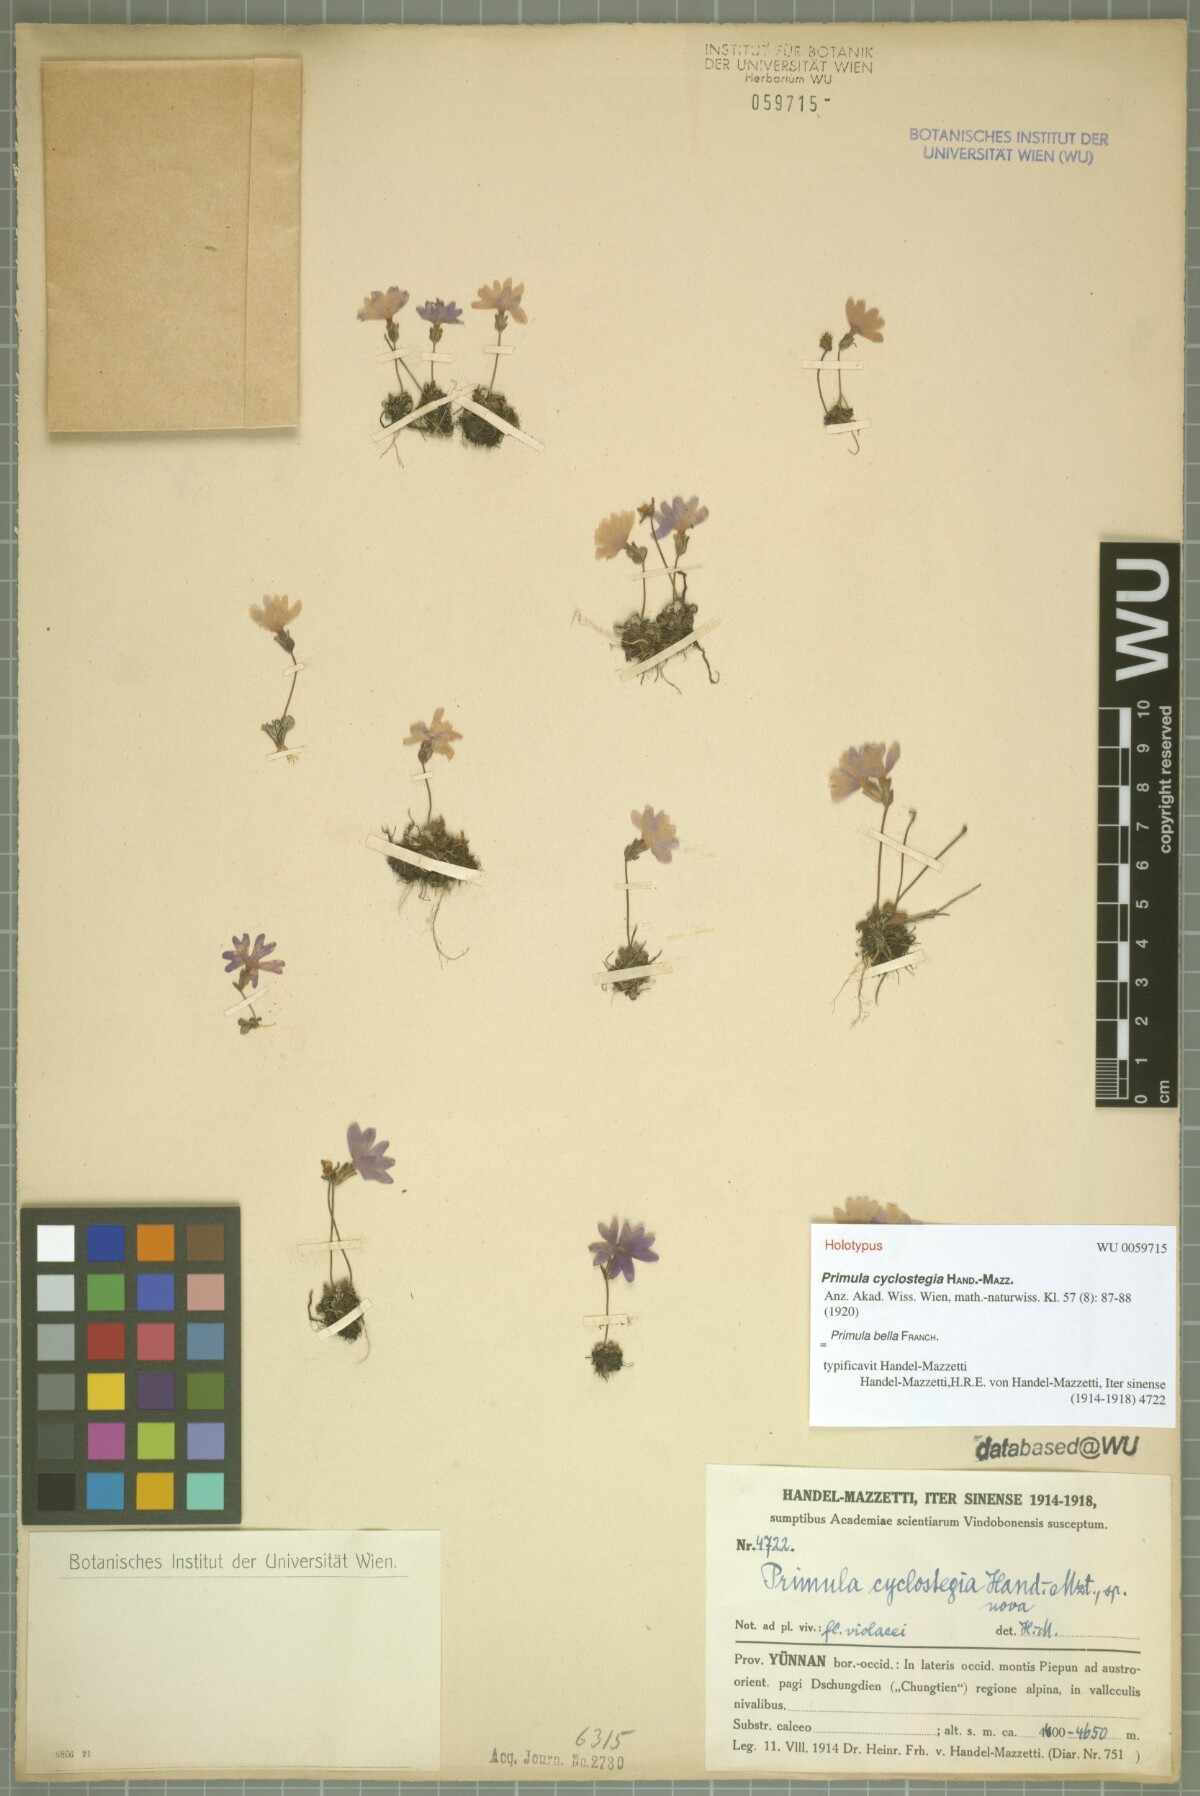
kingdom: Plantae
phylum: Tracheophyta
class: Magnoliopsida
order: Ericales
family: Primulaceae
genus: Primula
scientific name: Primula bella
